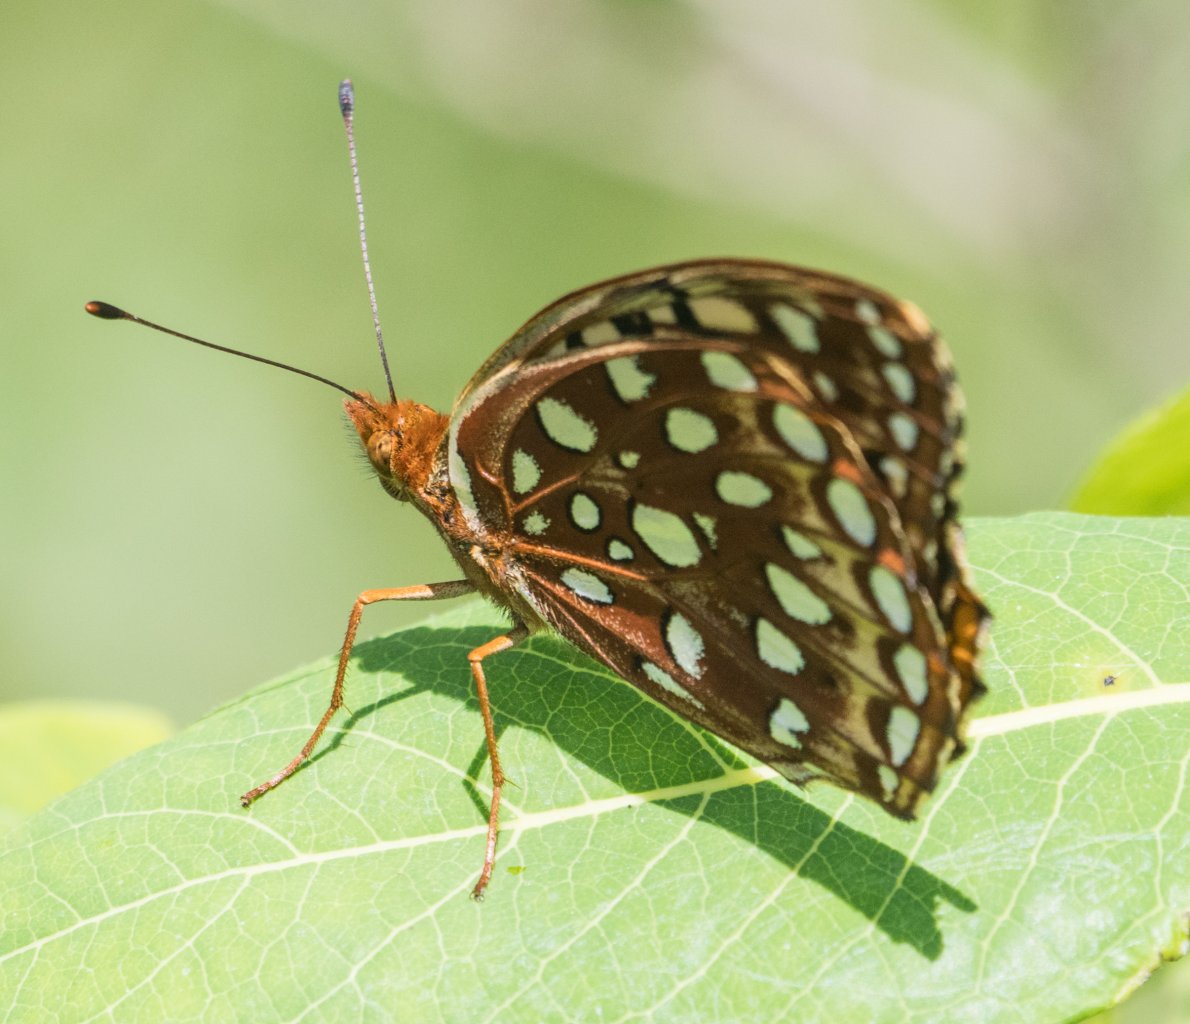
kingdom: Animalia
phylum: Arthropoda
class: Insecta
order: Lepidoptera
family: Nymphalidae
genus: Speyeria
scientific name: Speyeria aphrodite
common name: Aphrodite Fritillary
